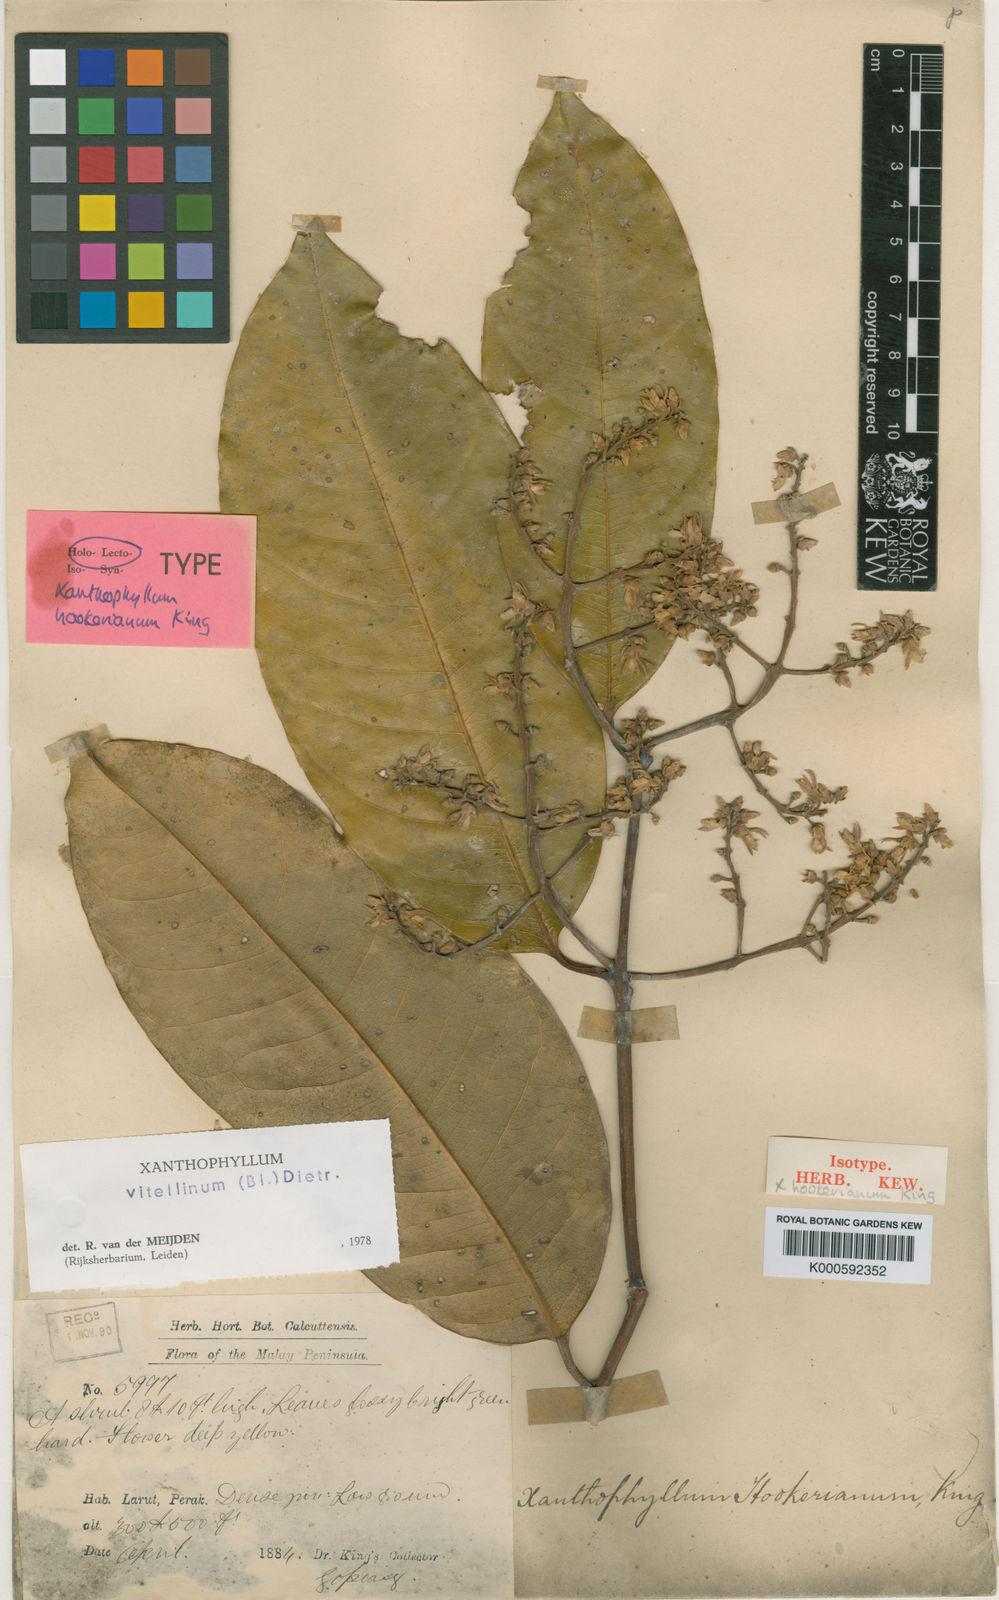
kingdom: Plantae
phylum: Tracheophyta
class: Magnoliopsida
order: Fabales
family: Polygalaceae
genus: Xanthophyllum
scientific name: Xanthophyllum vitellinum
